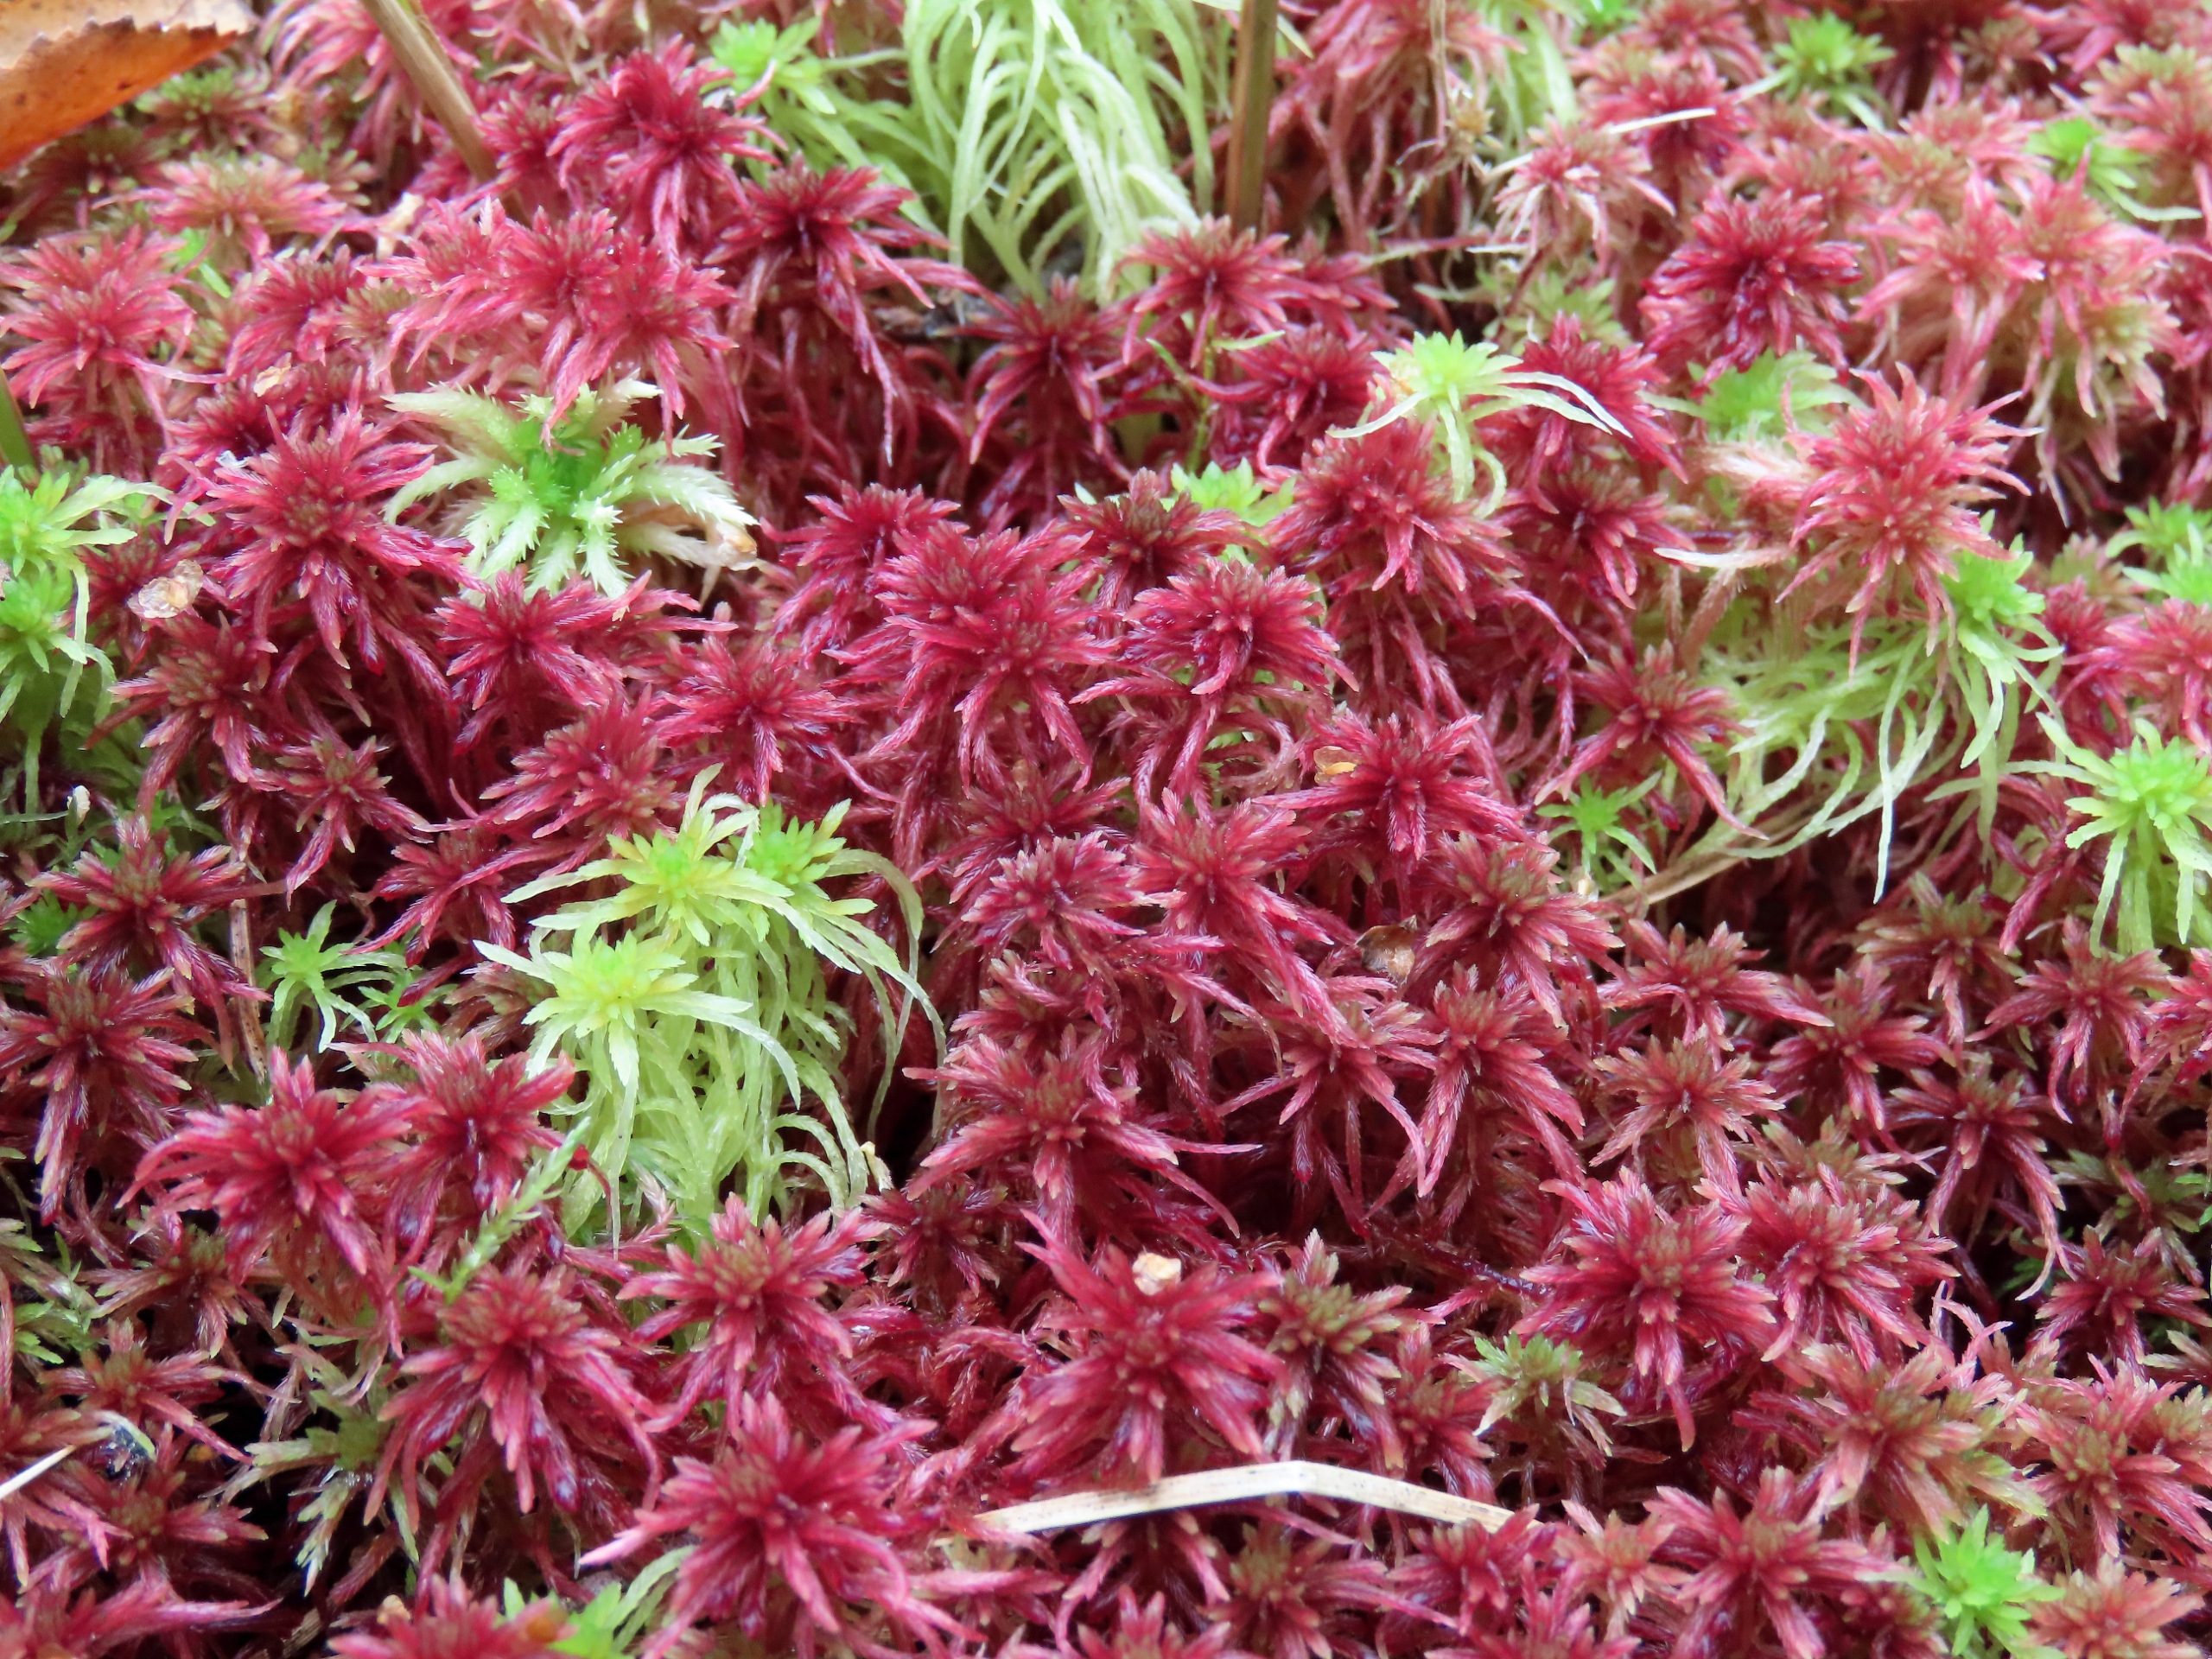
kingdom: Plantae
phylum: Bryophyta
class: Sphagnopsida
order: Sphagnales
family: Sphagnaceae
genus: Sphagnum
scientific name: Sphagnum warnstorfii
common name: Blygrå tørvemos
